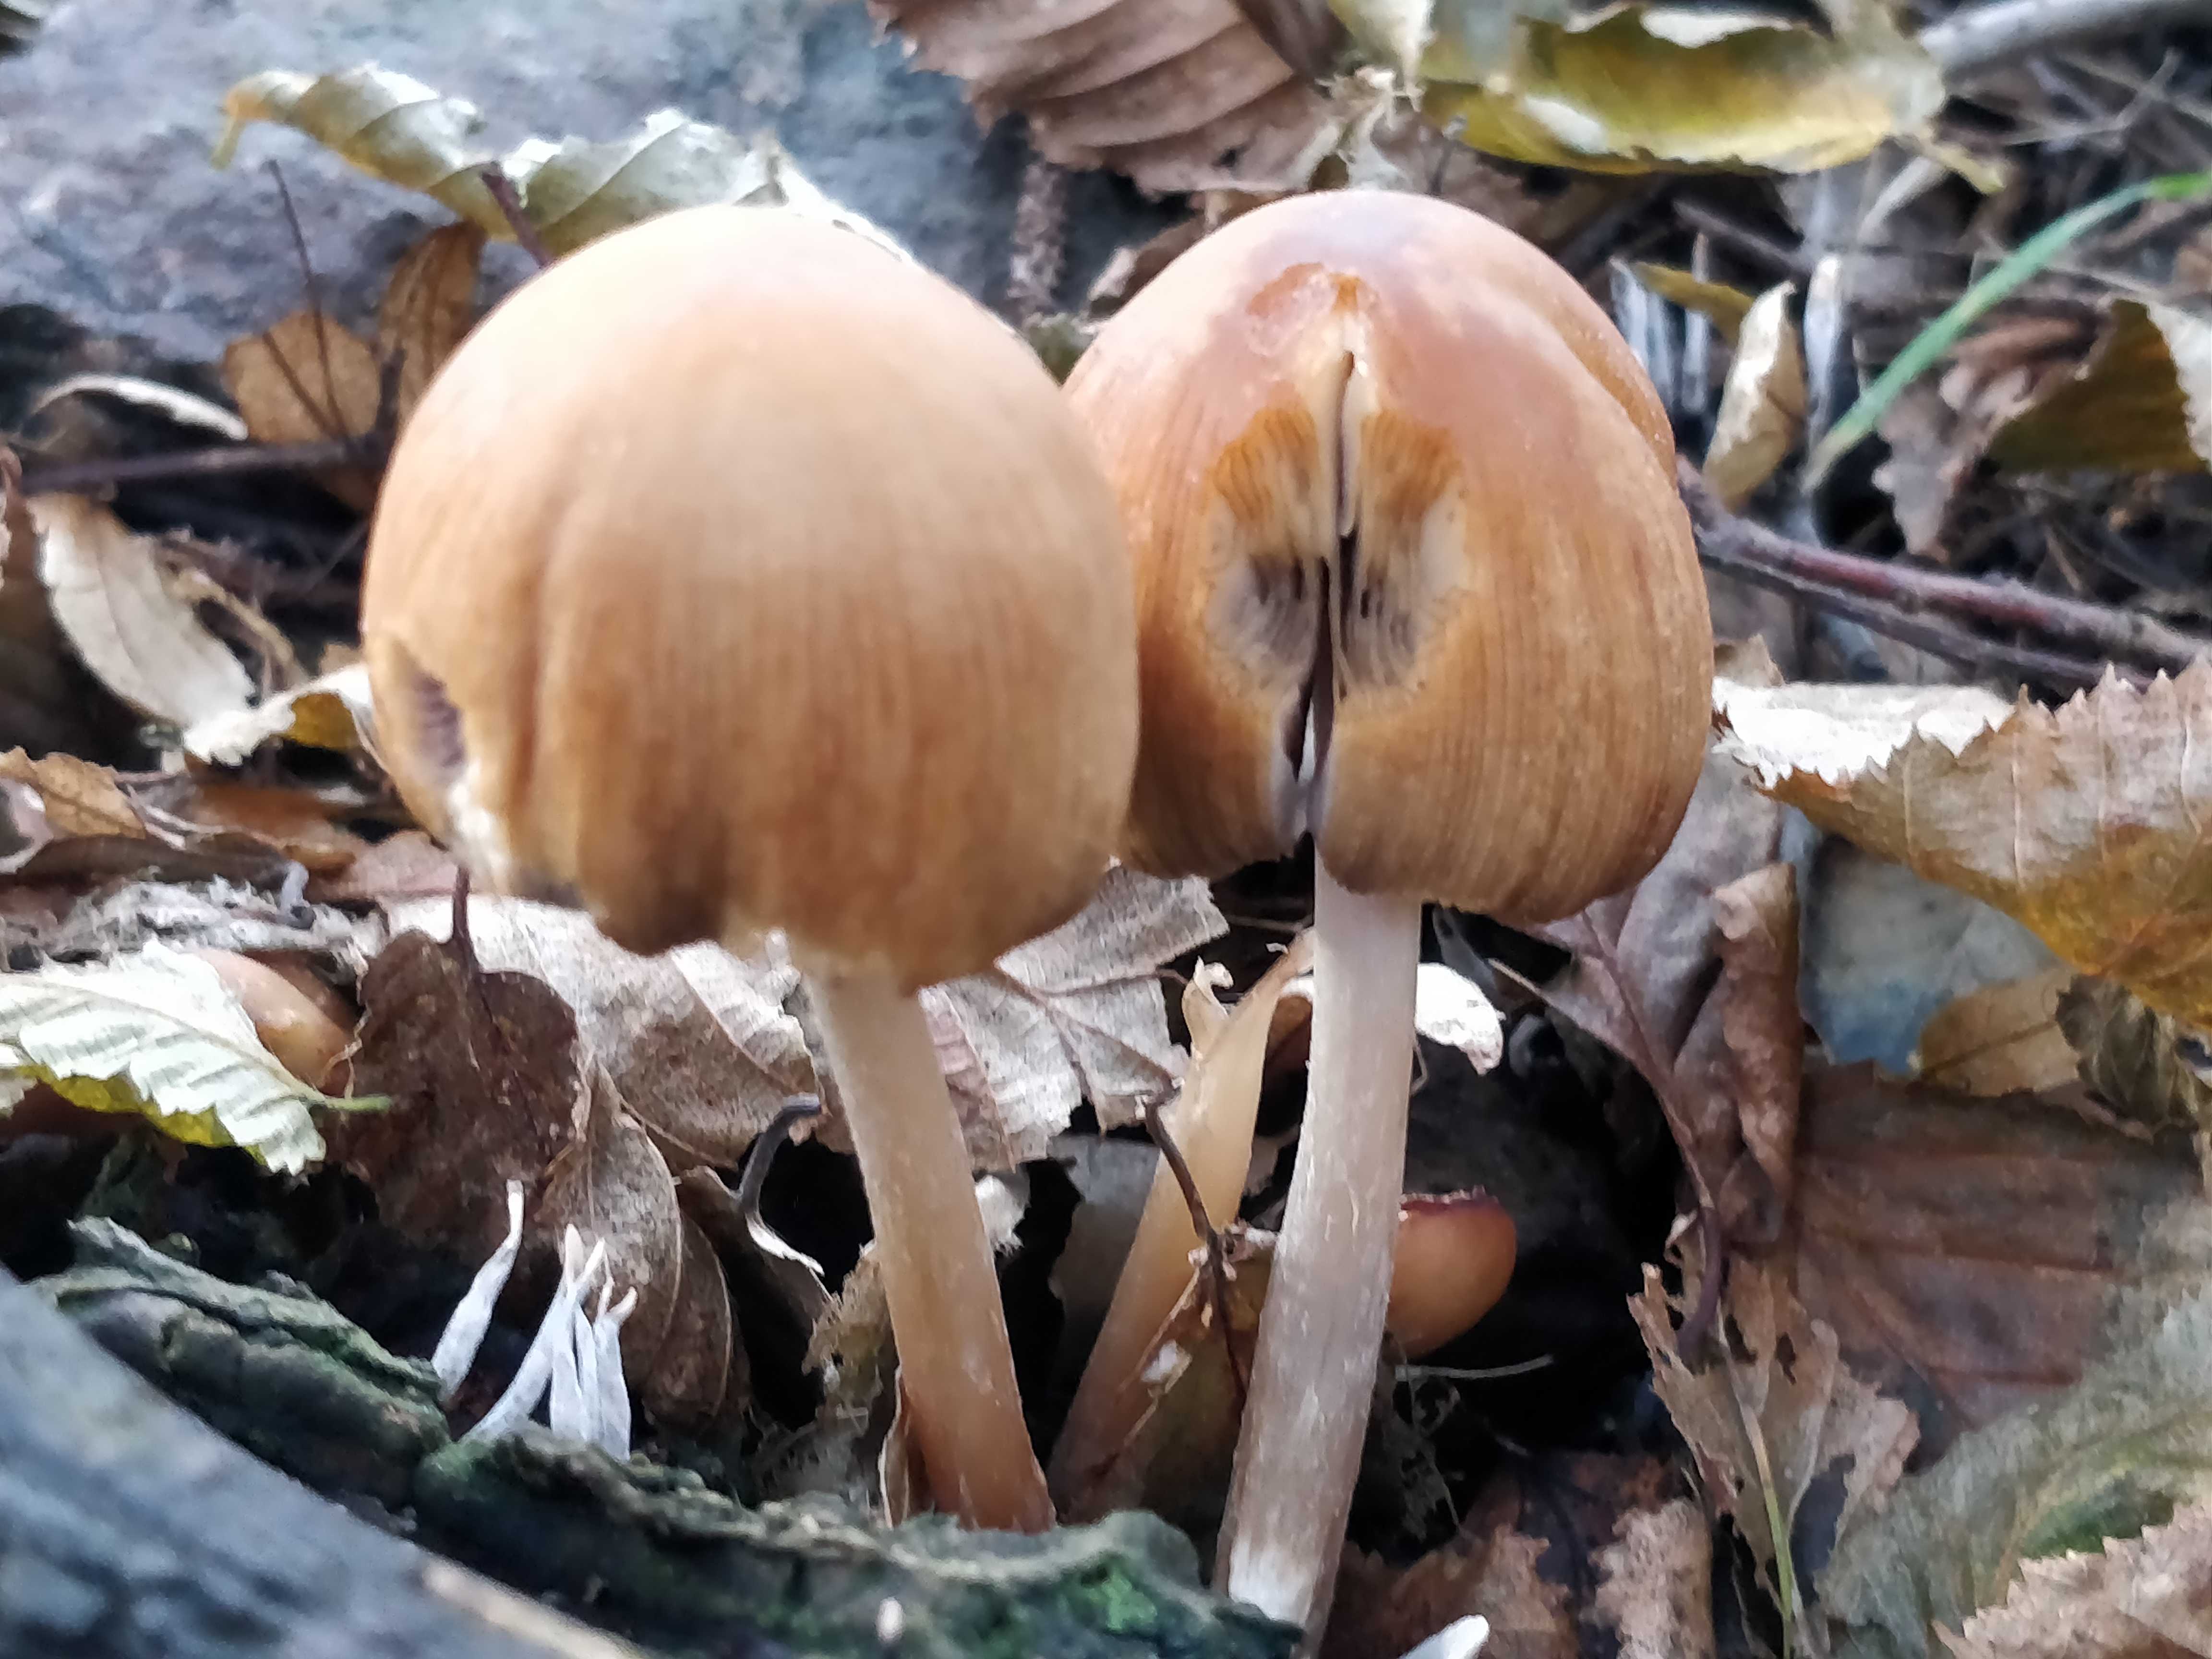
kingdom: Fungi
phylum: Basidiomycota
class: Agaricomycetes
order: Agaricales
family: Psathyrellaceae
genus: Coprinellus
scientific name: Coprinellus micaceus
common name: glimmer-blækhat
